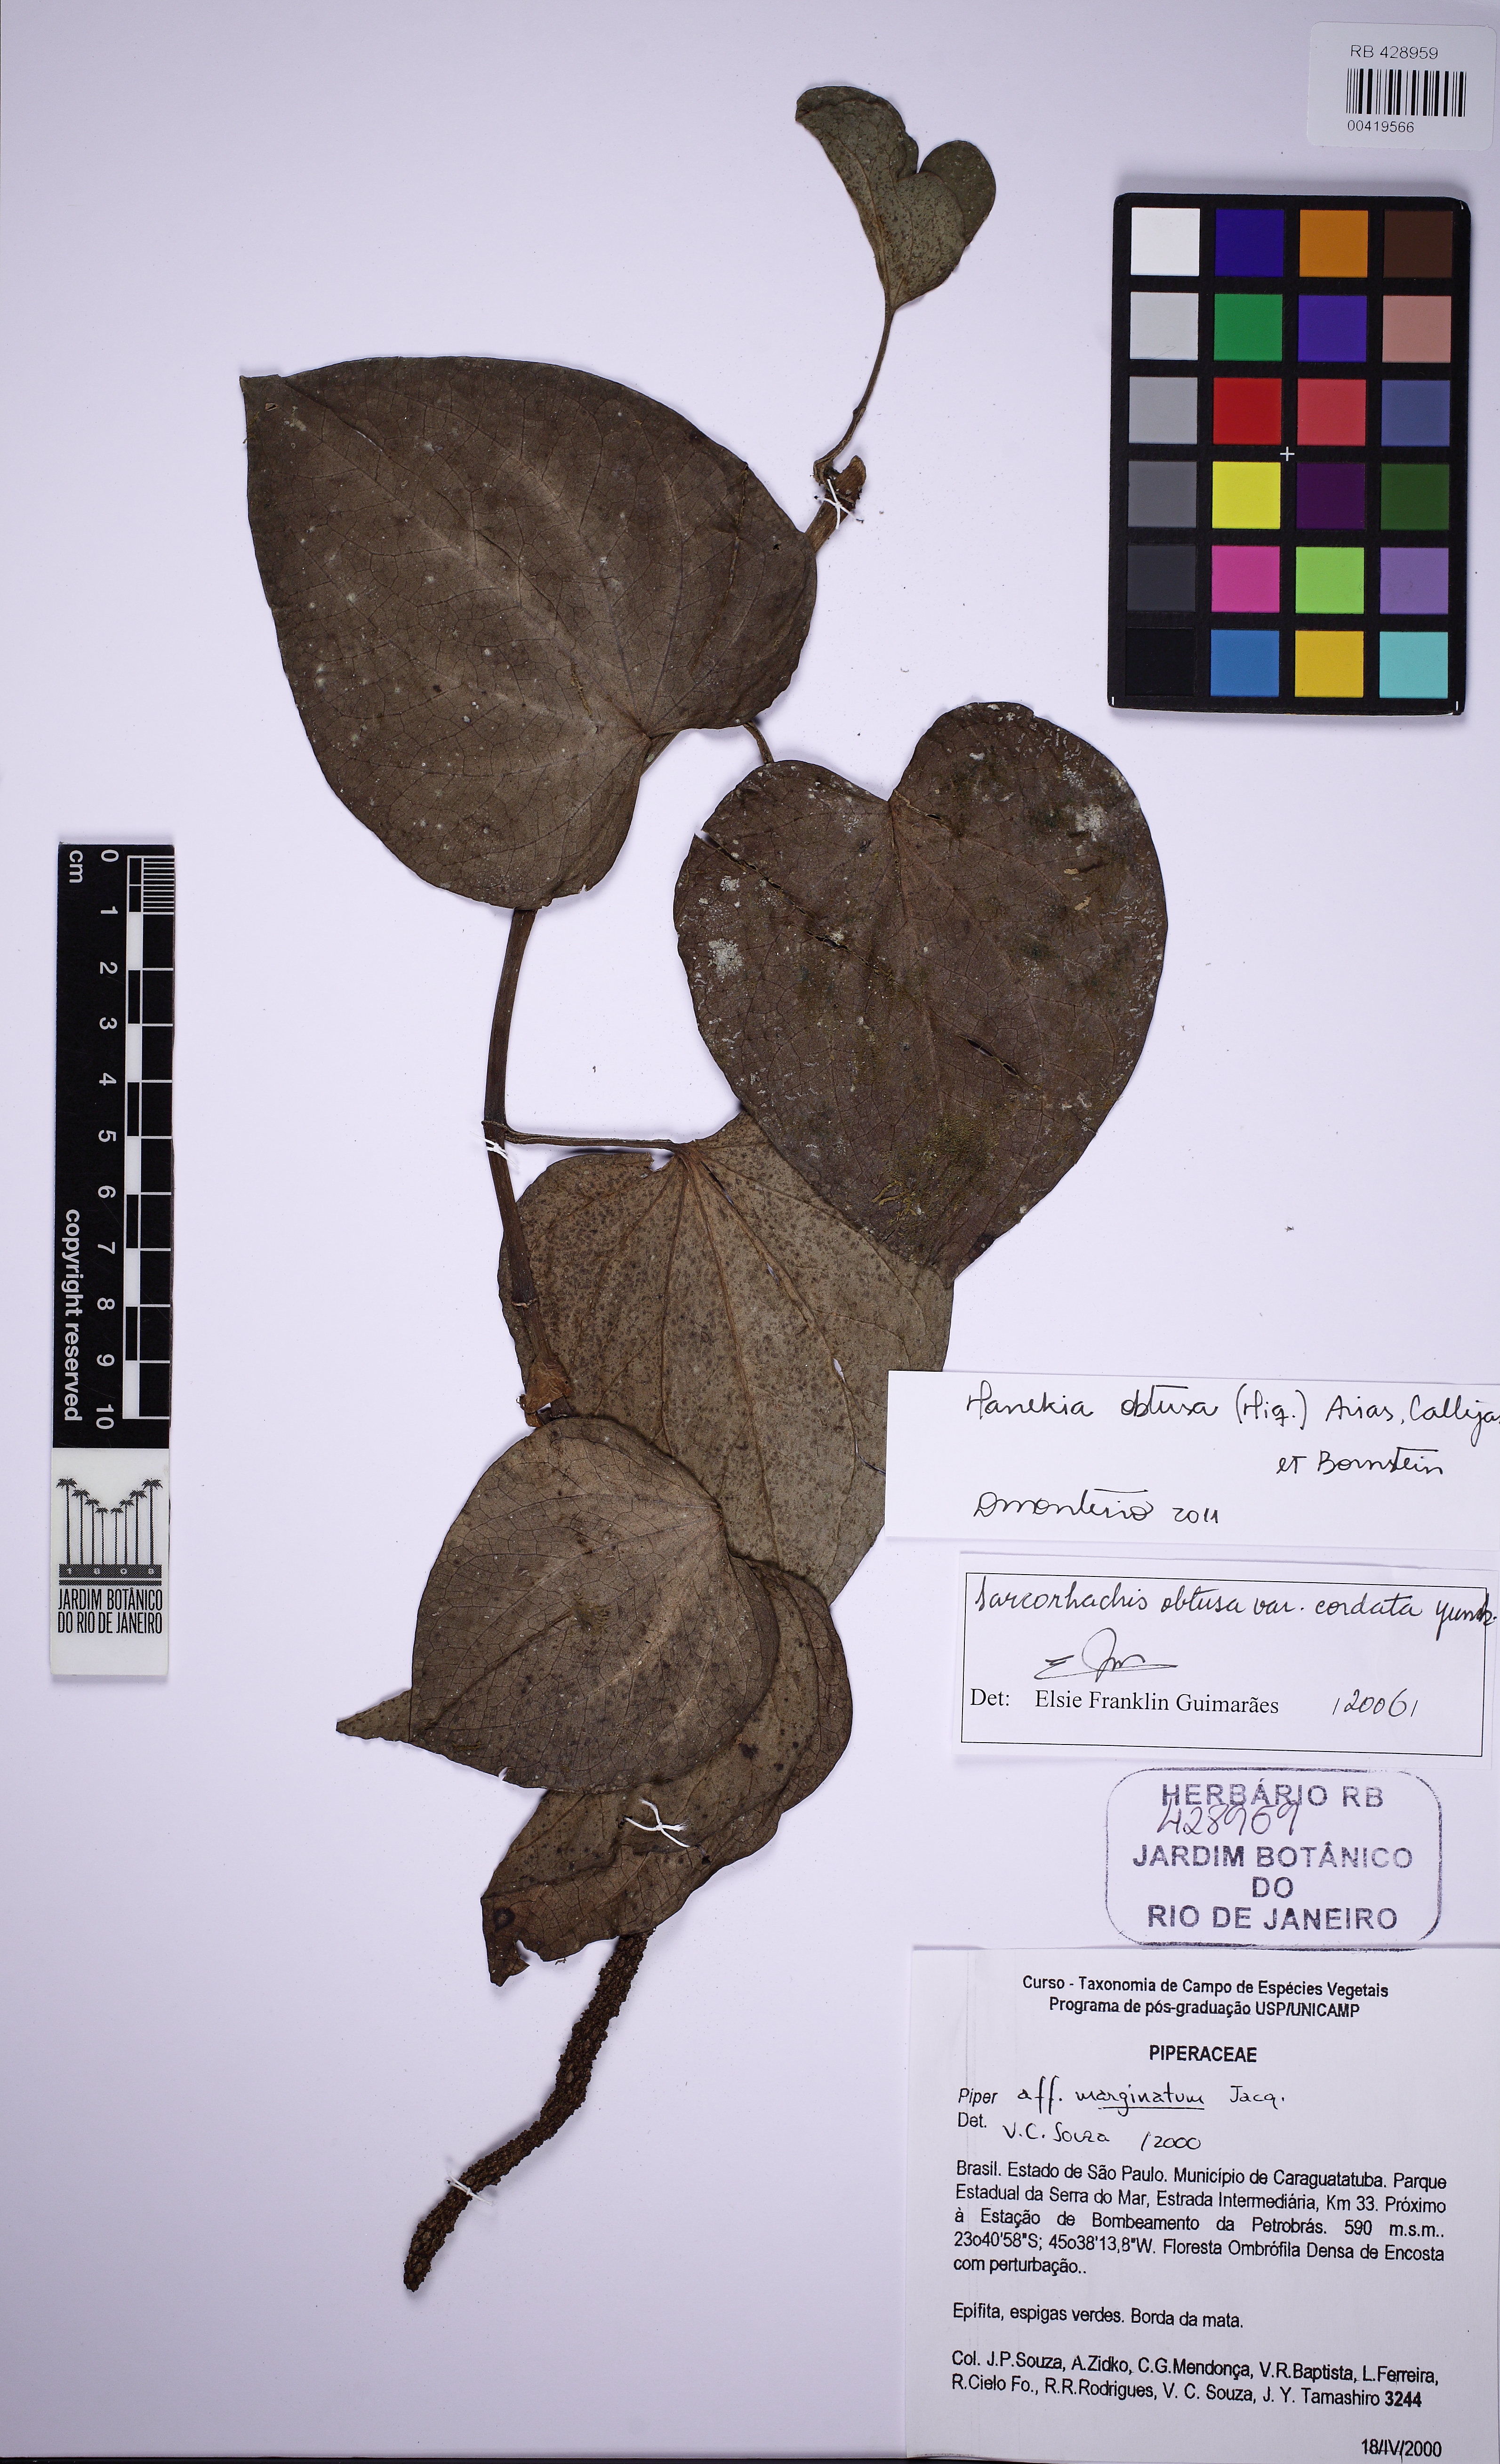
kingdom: Plantae
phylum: Tracheophyta
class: Magnoliopsida
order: Piperales
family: Piperaceae
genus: Manekia
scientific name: Manekia obtusa
